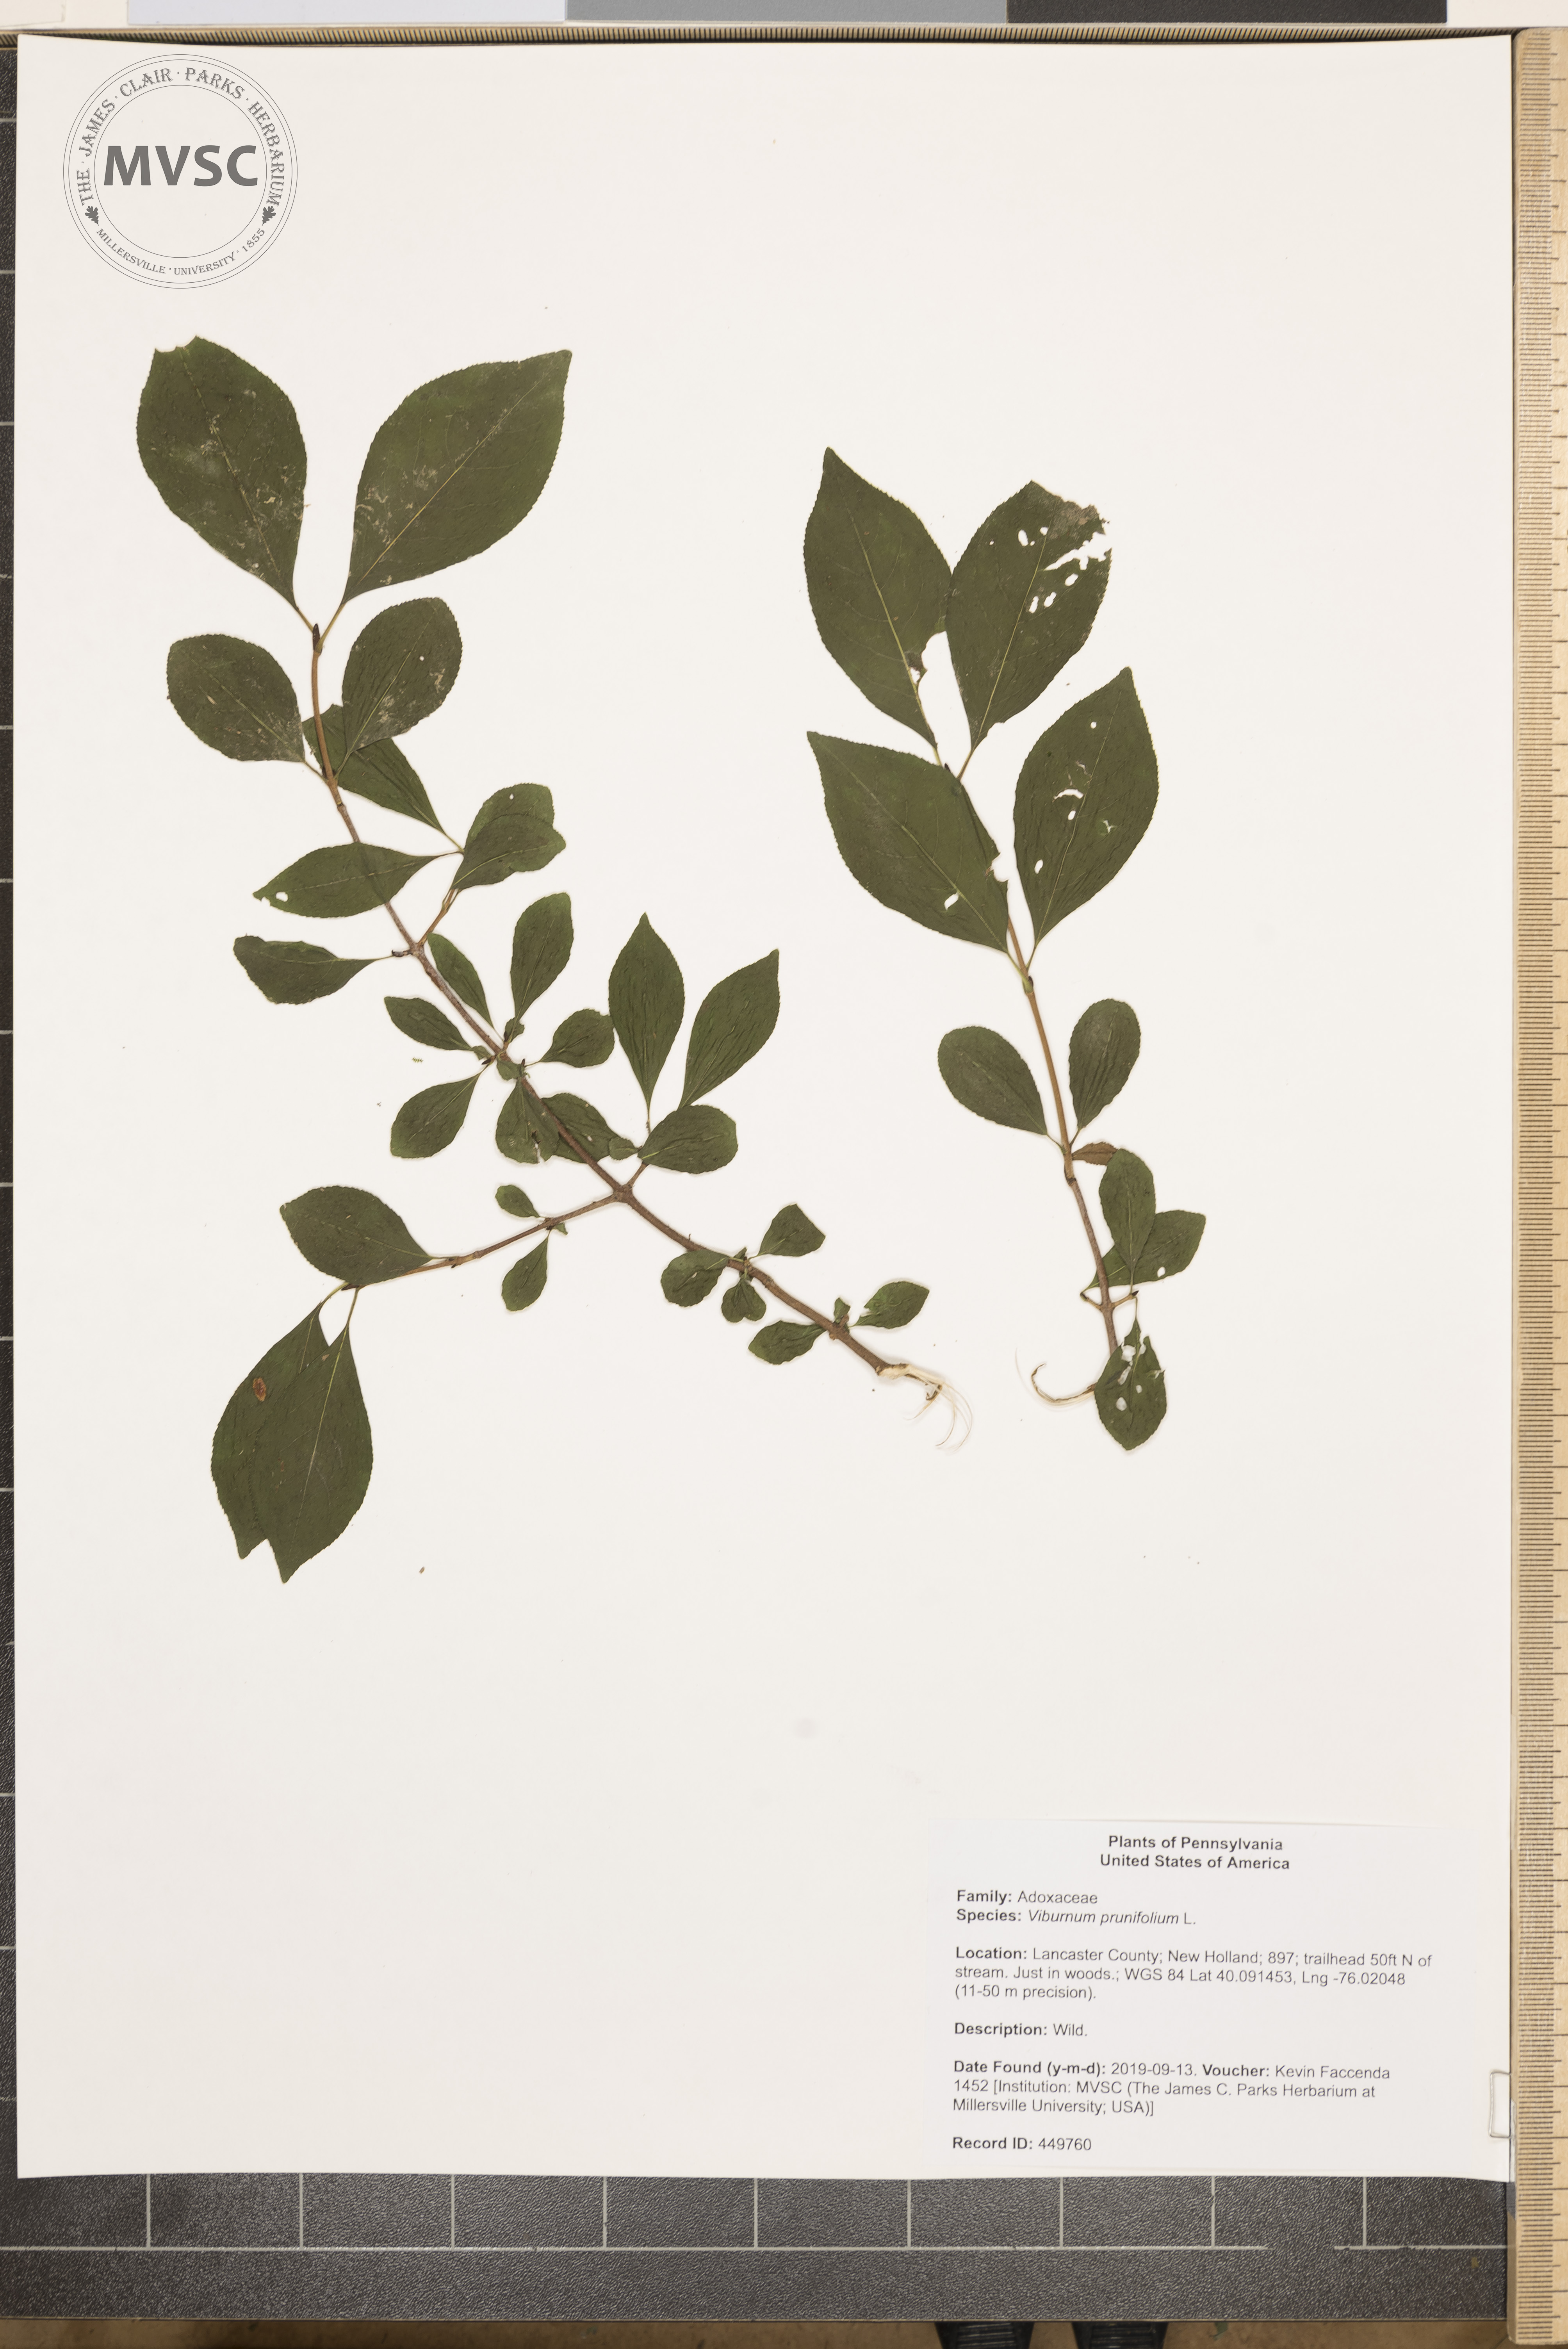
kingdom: Plantae
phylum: Tracheophyta
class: Magnoliopsida
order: Dipsacales
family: Viburnaceae
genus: Viburnum
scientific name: Viburnum prunifolium
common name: blackhaw
